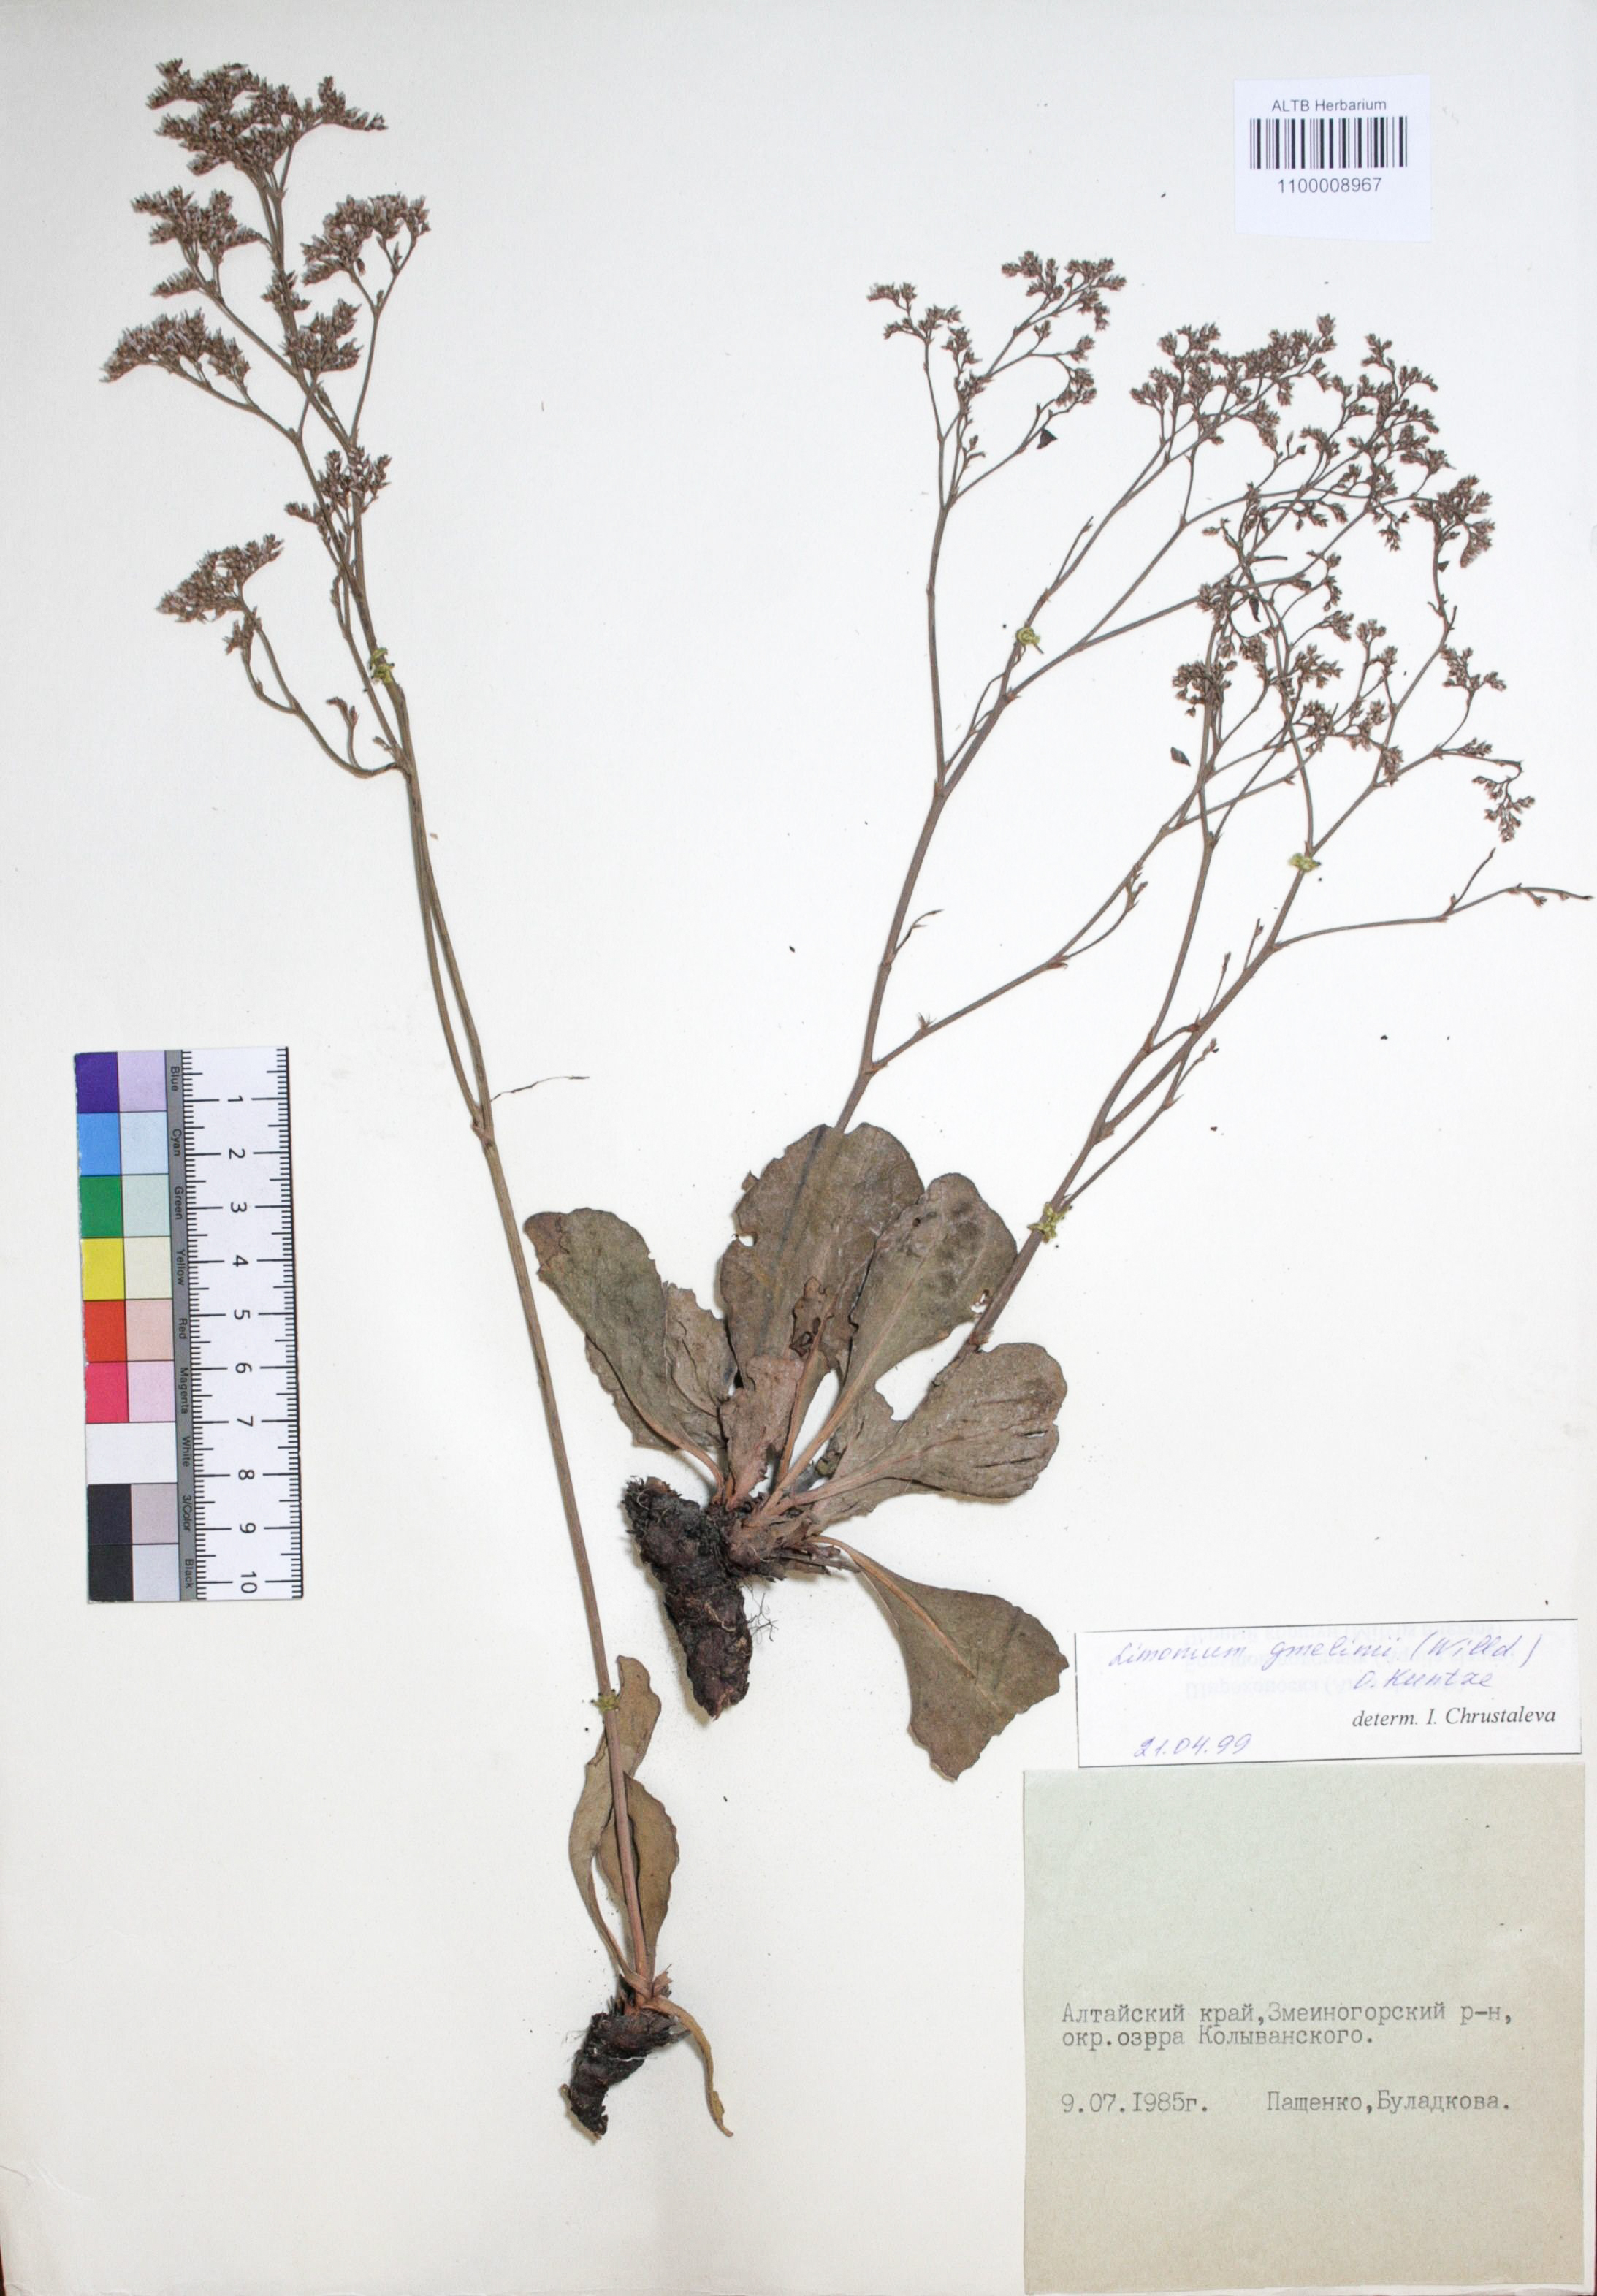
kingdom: Plantae
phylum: Tracheophyta
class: Magnoliopsida
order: Caryophyllales
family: Plumbaginaceae
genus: Limonium
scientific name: Limonium gmelini
